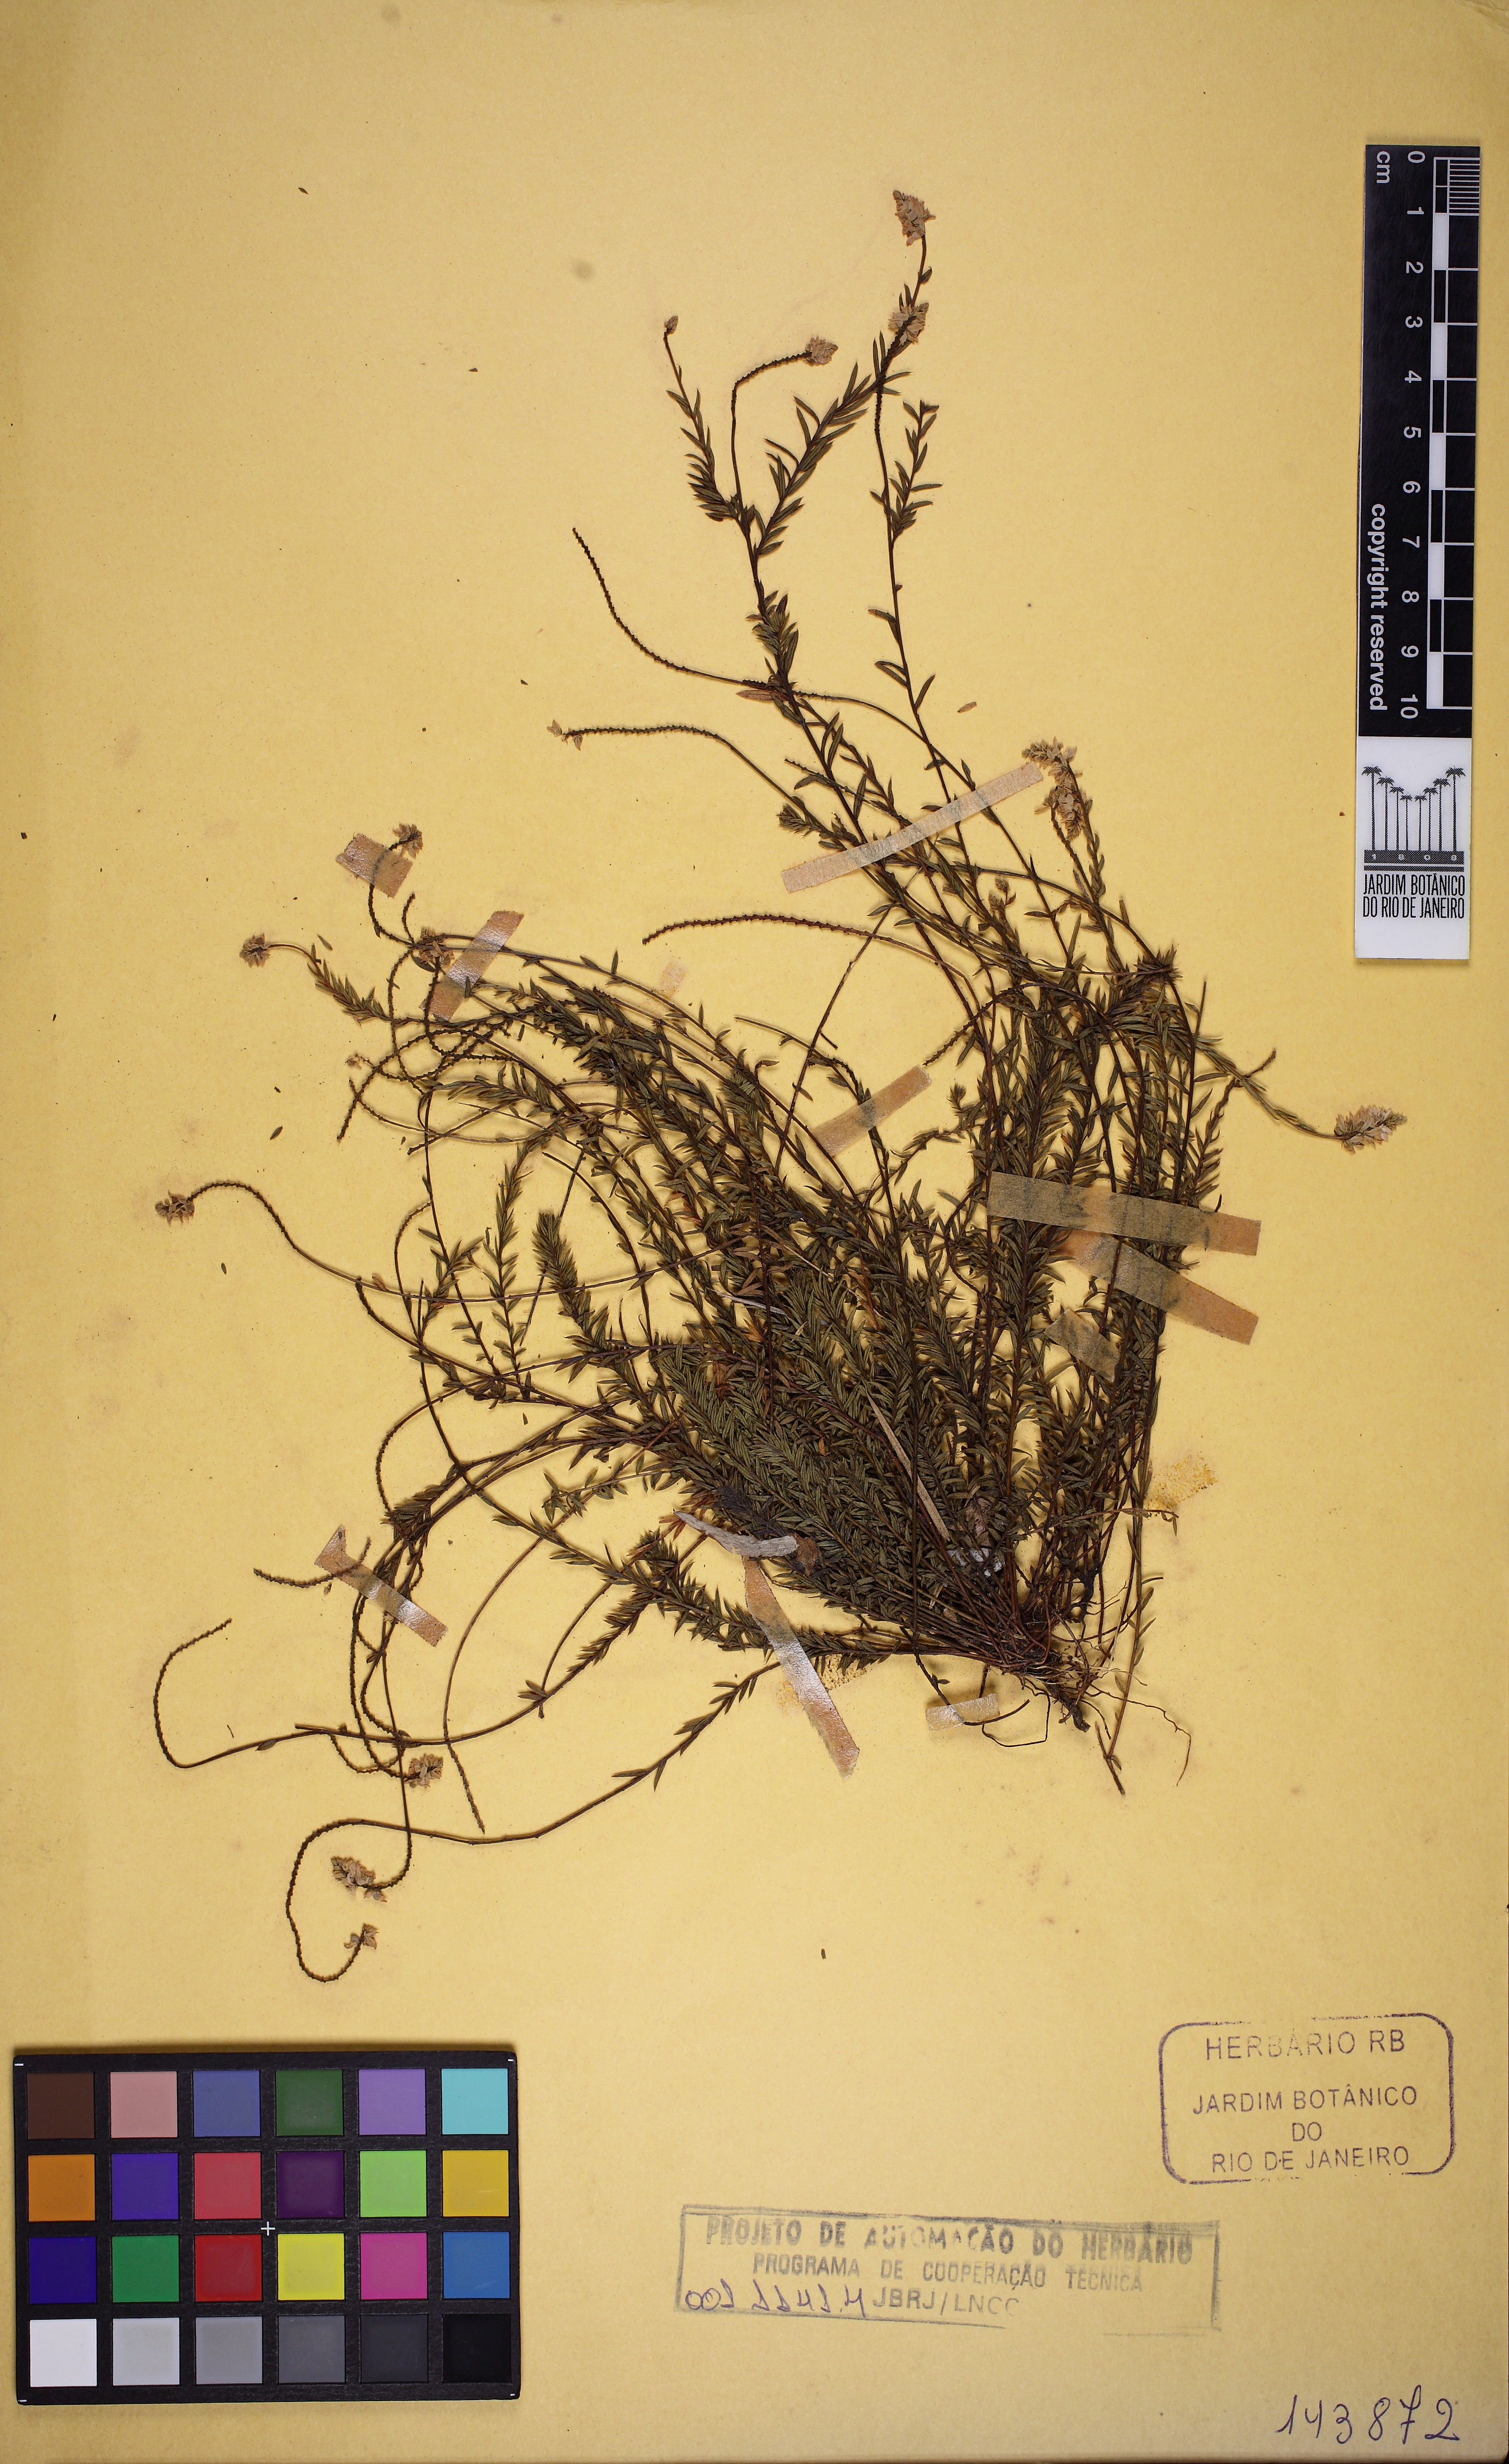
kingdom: Plantae
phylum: Tracheophyta
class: Magnoliopsida
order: Fabales
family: Polygalaceae
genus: Polygala
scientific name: Polygala vollii
